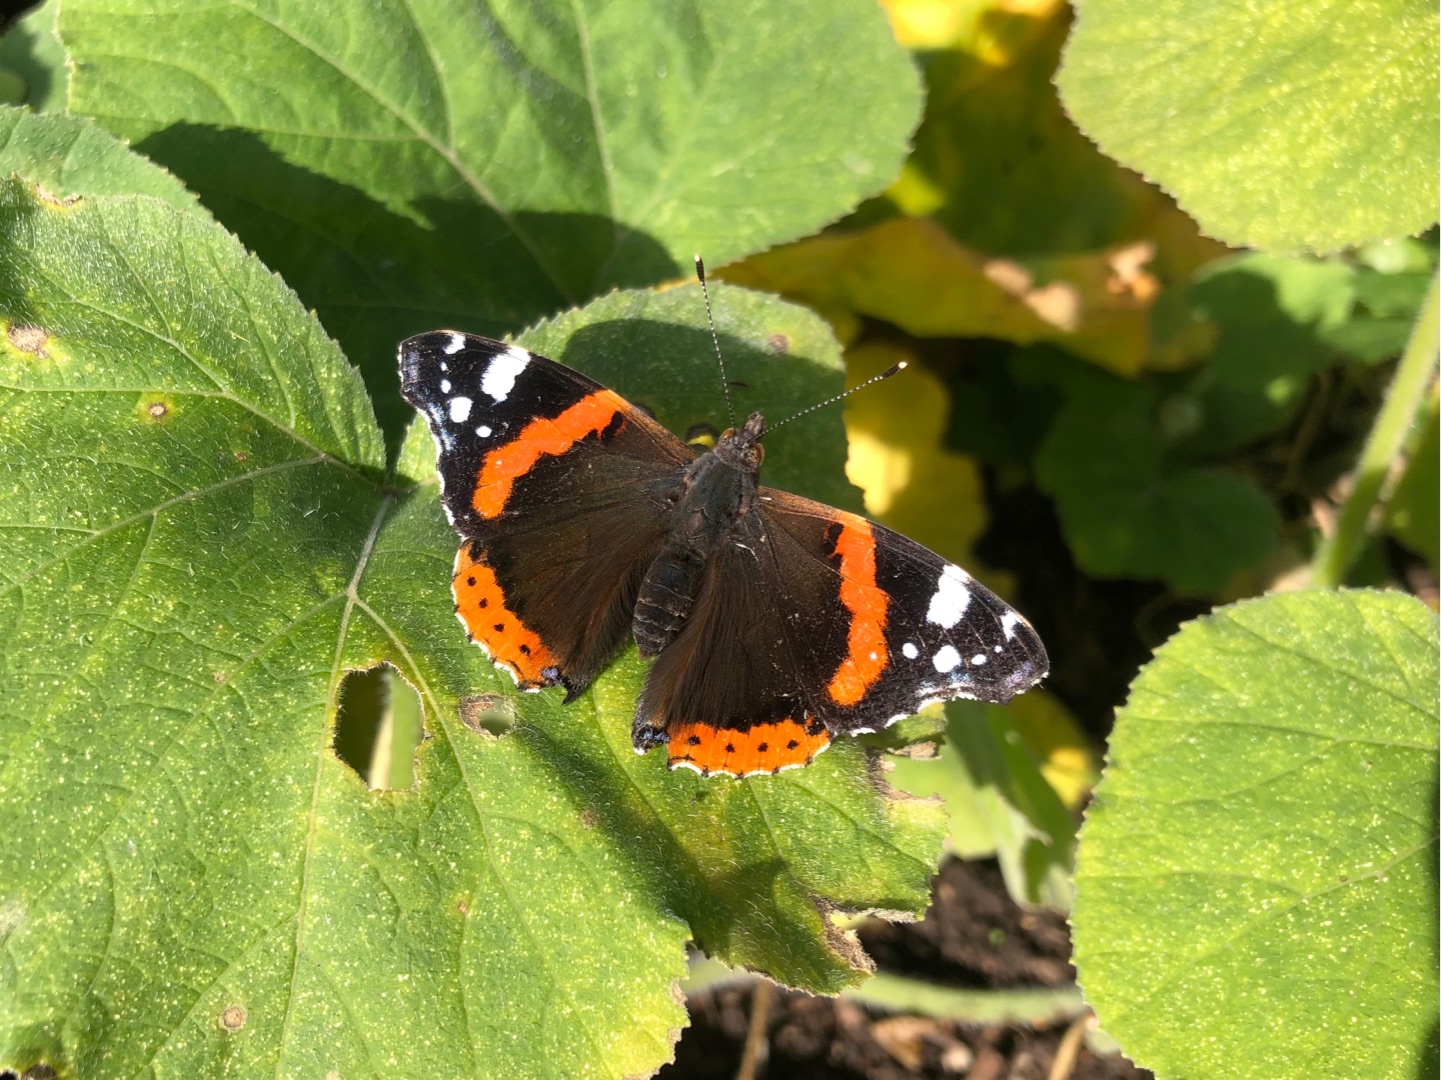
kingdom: Animalia
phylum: Arthropoda
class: Insecta
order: Lepidoptera
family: Nymphalidae
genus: Vanessa
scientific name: Vanessa atalanta
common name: Admiral
